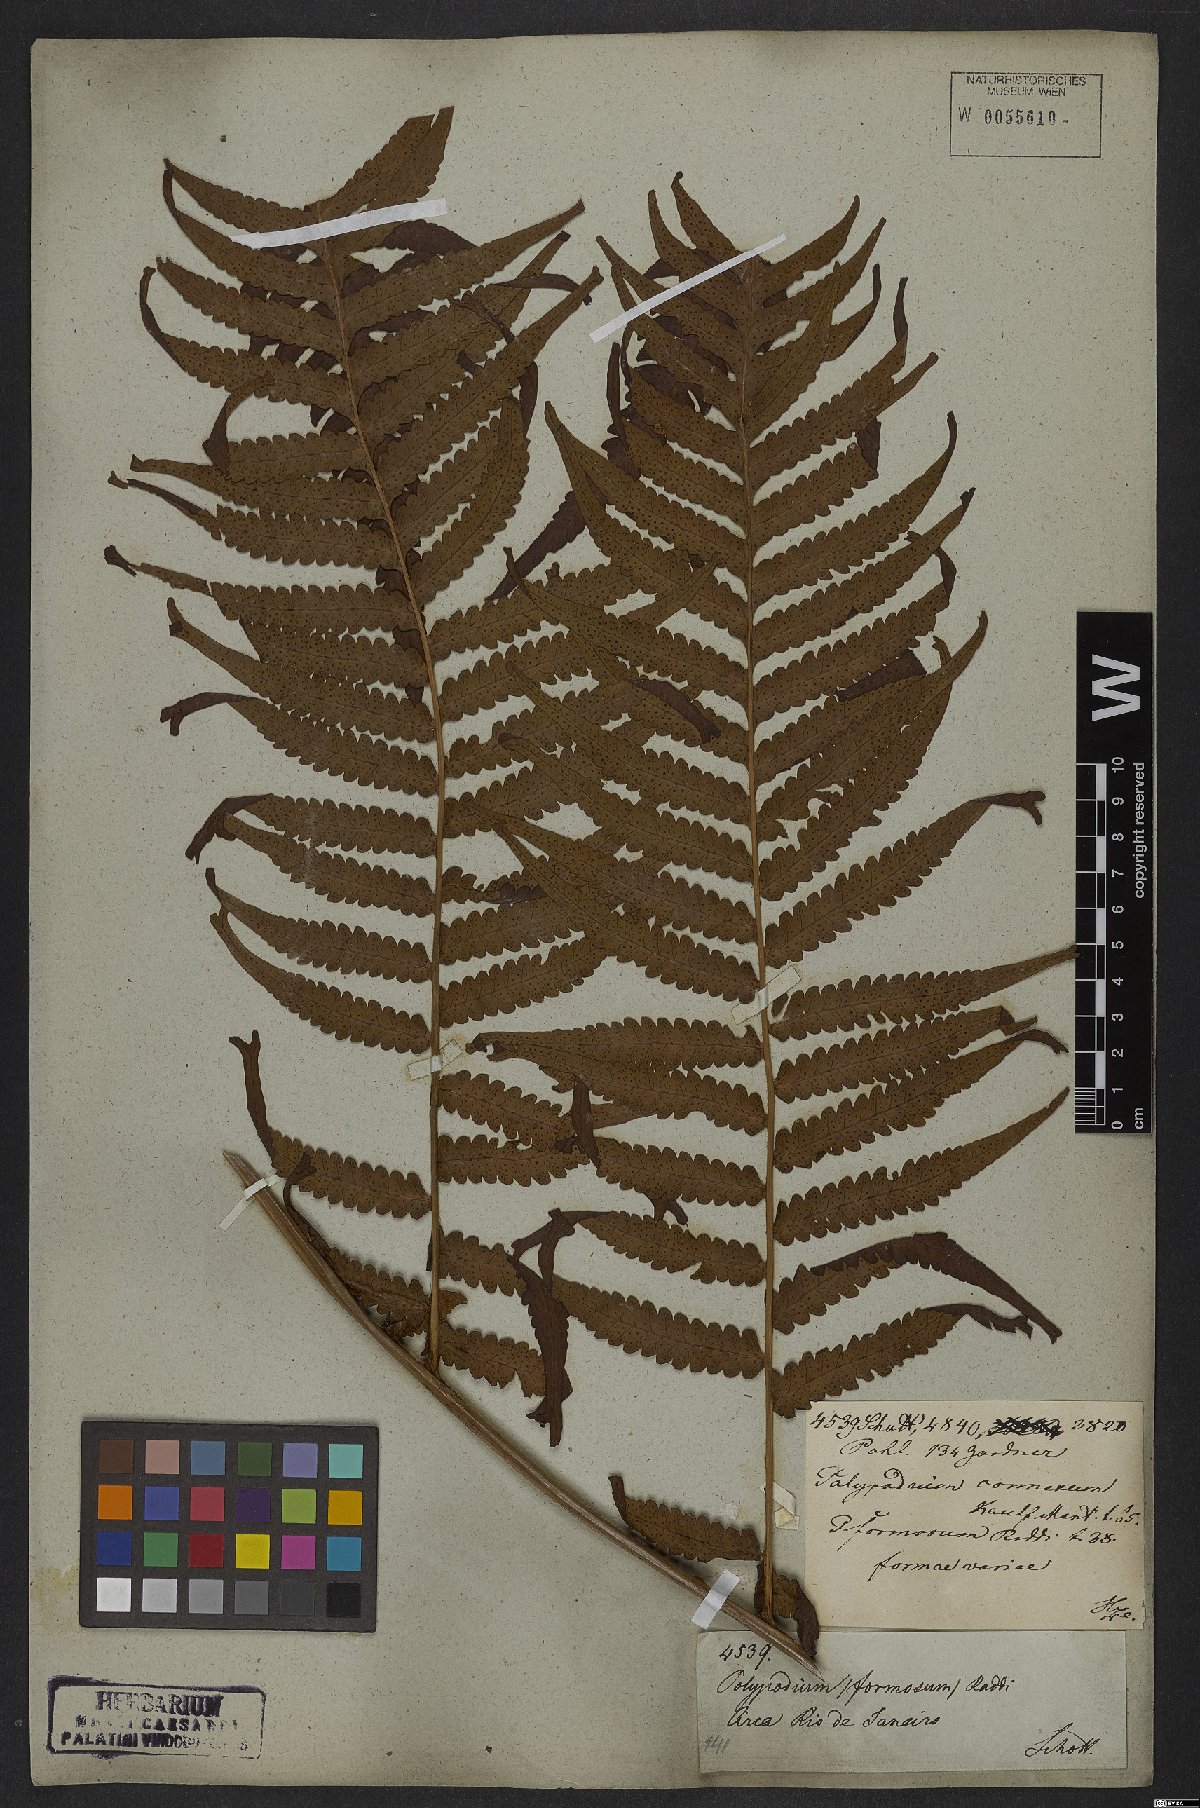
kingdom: Plantae
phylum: Tracheophyta
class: Polypodiopsida
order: Polypodiales
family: Dryopteridaceae
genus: Megalastrum
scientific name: Megalastrum connexum
